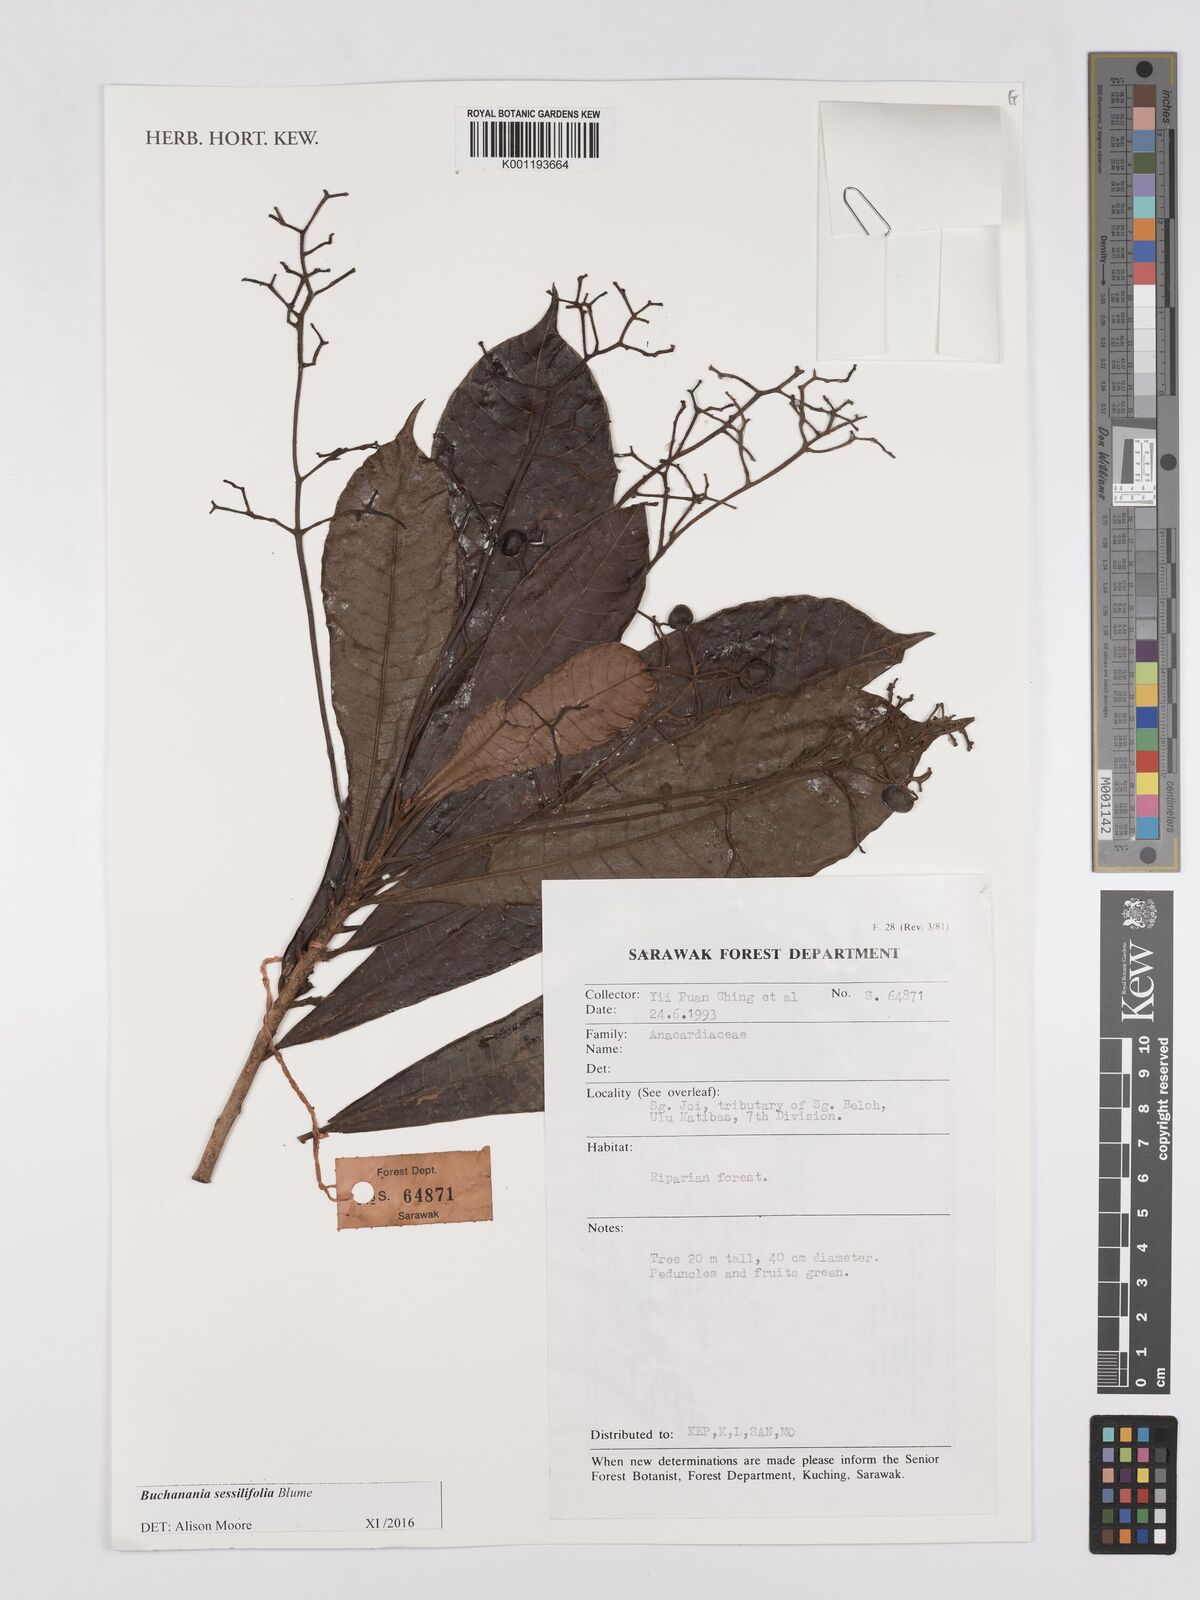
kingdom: Plantae
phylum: Tracheophyta
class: Magnoliopsida
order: Sapindales
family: Anacardiaceae
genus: Buchanania
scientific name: Buchanania sessifolia
